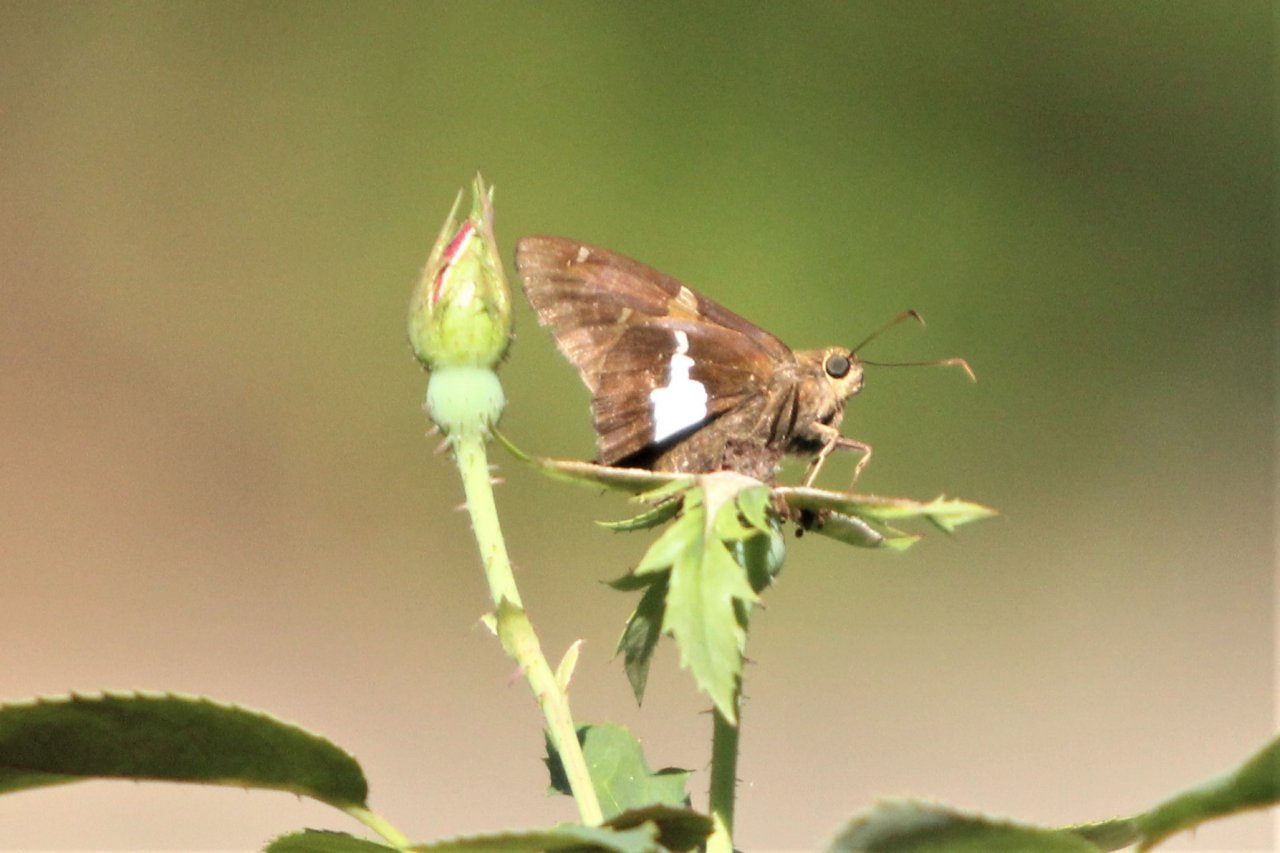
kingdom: Animalia
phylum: Arthropoda
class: Insecta
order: Lepidoptera
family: Hesperiidae
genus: Epargyreus
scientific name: Epargyreus clarus
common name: Silver-spotted Skipper
